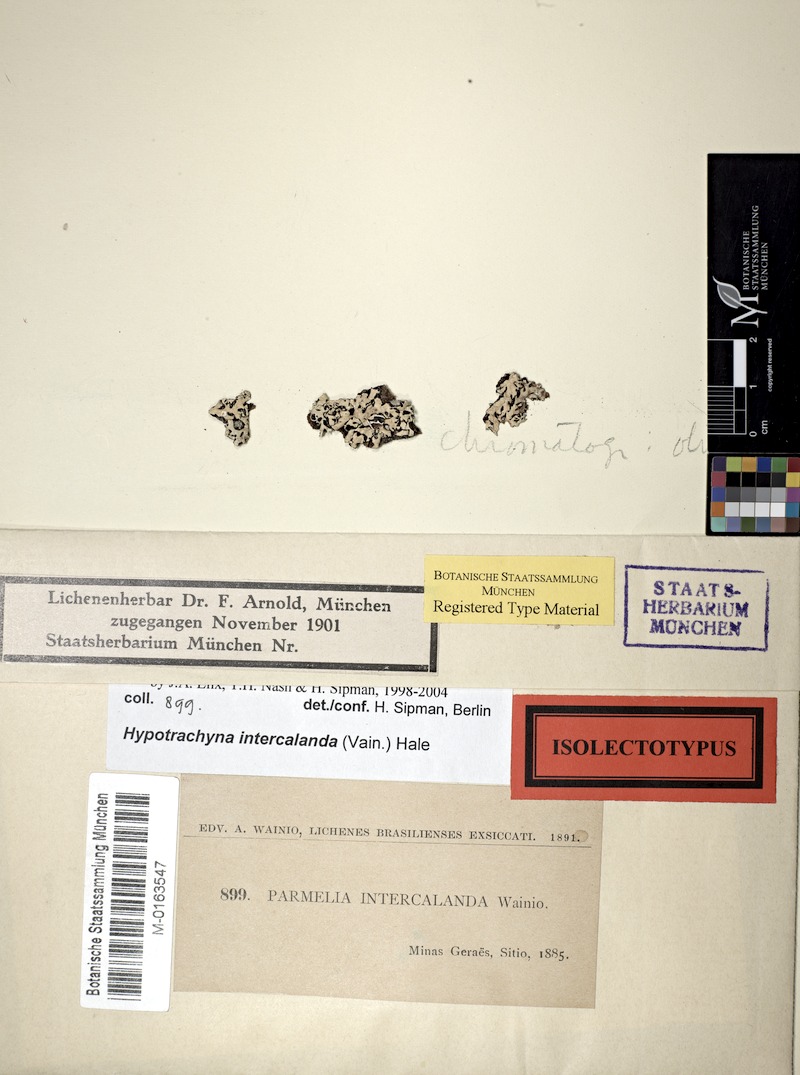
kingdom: Fungi
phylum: Ascomycota
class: Lecanoromycetes
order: Lecanorales
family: Parmeliaceae
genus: Hypotrachyna
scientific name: Hypotrachyna intercalanda
